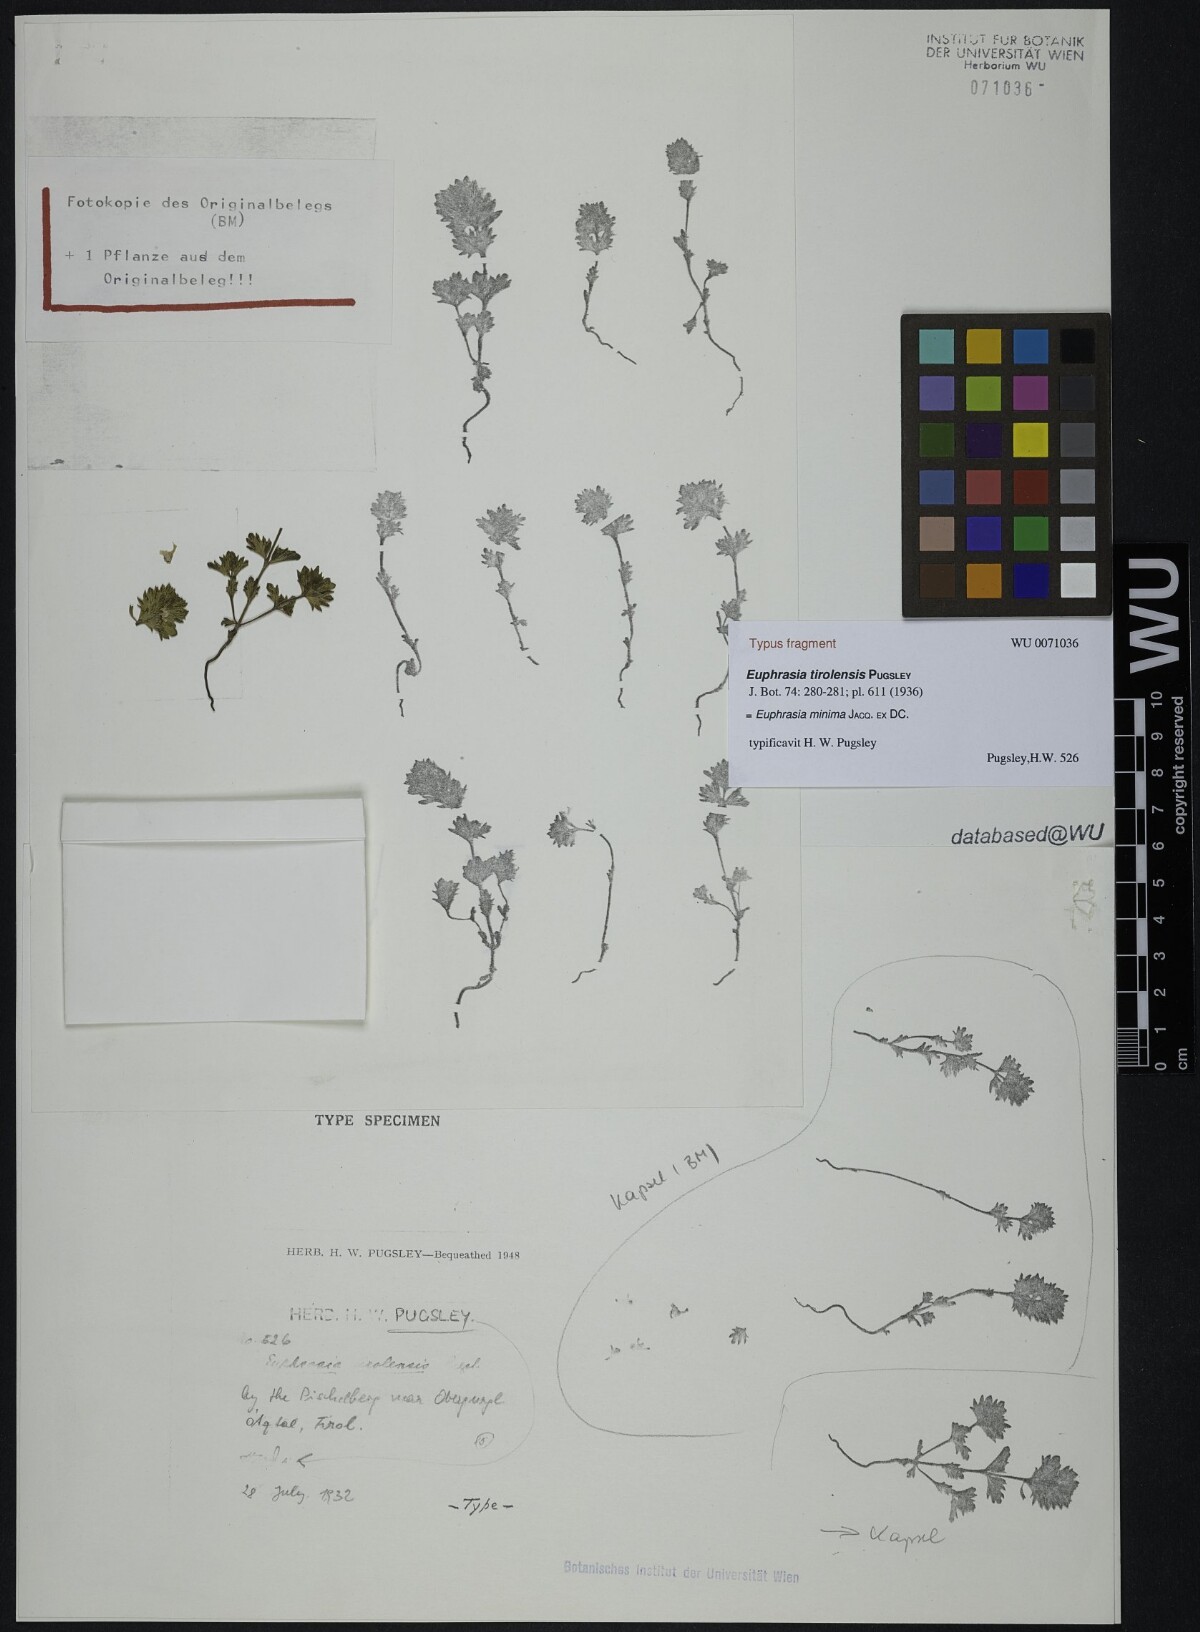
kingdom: Plantae
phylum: Tracheophyta
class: Magnoliopsida
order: Lamiales
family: Orobanchaceae
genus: Euphrasia
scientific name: Euphrasia tirolensis
